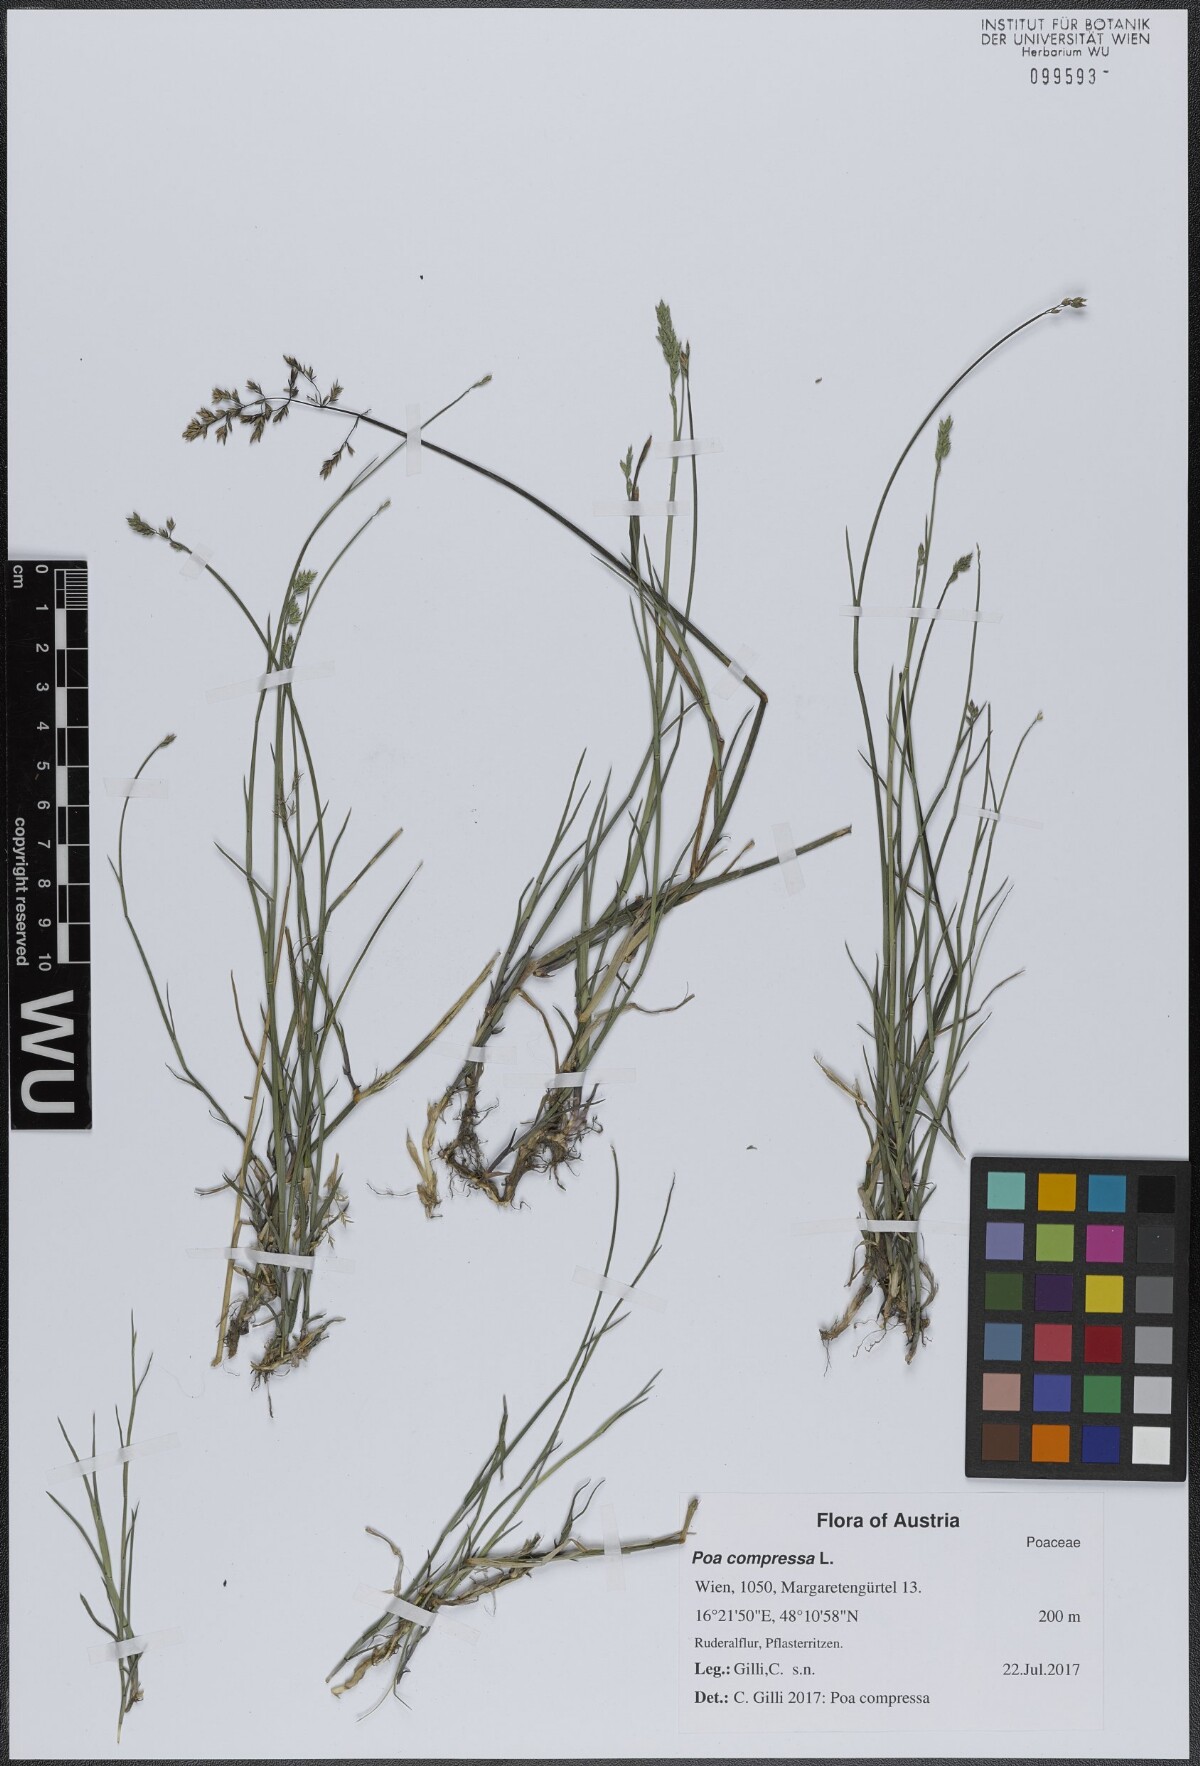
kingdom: Plantae
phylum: Tracheophyta
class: Liliopsida
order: Poales
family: Poaceae
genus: Poa
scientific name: Poa compressa
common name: Canada bluegrass
